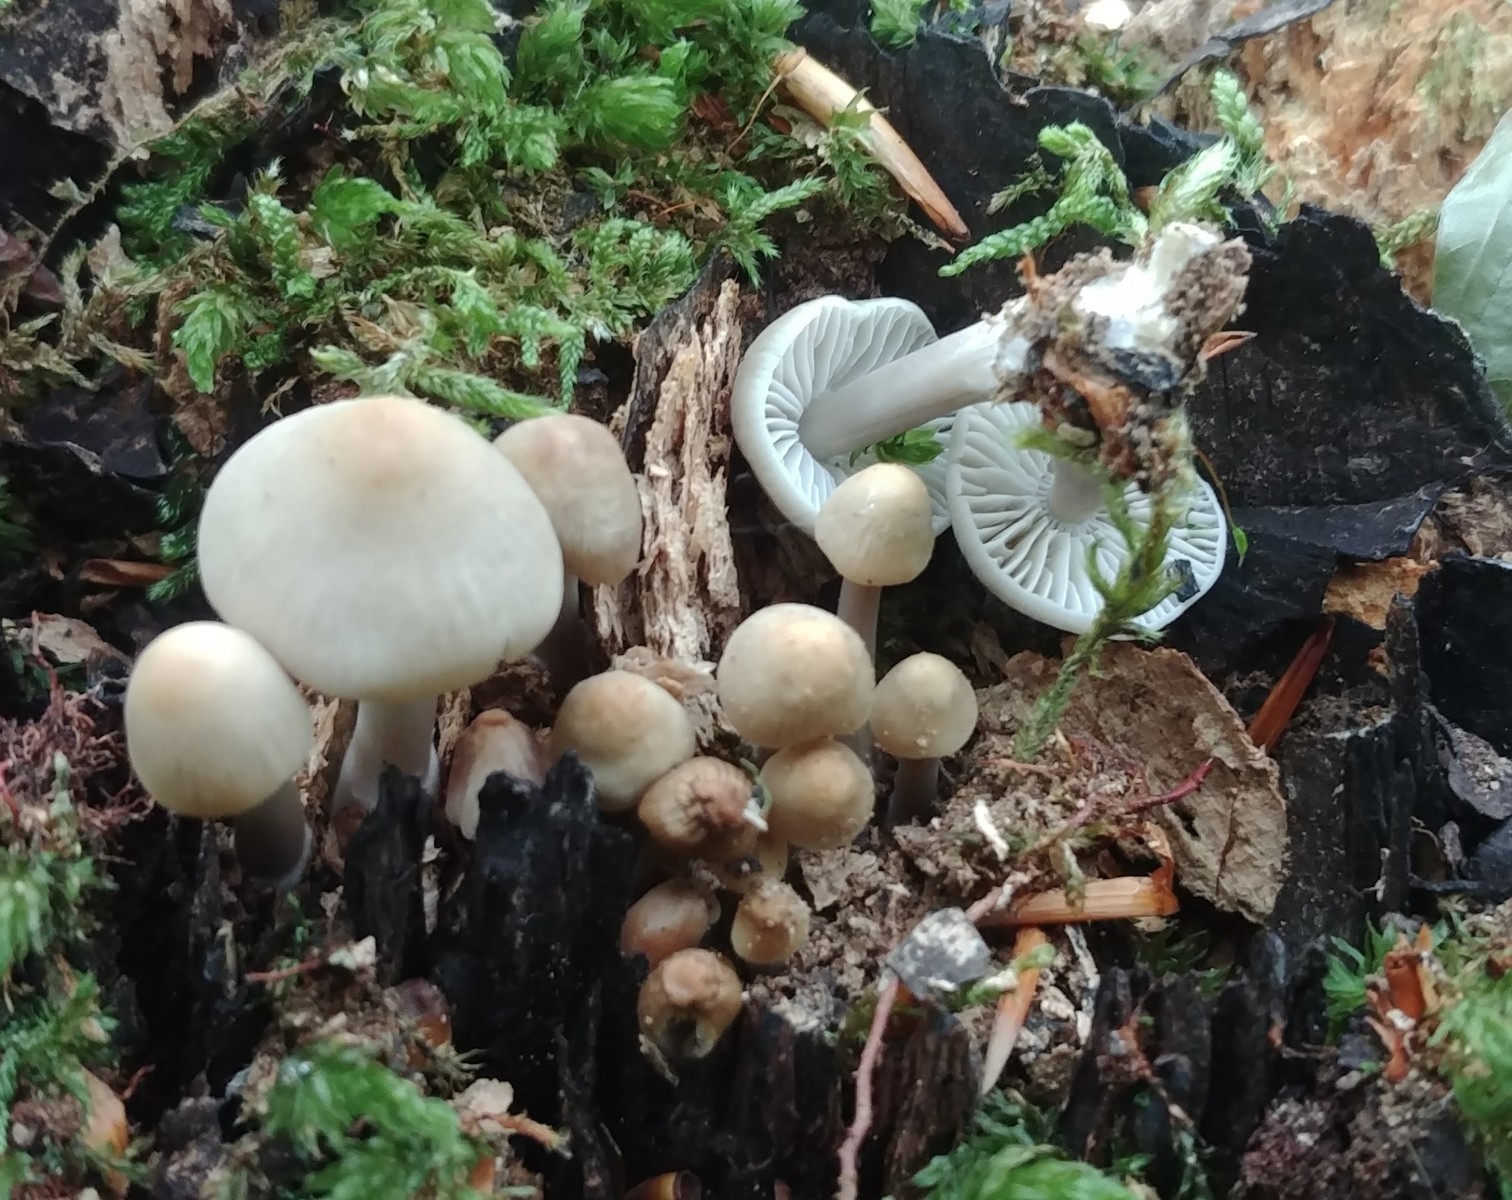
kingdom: Fungi
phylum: Basidiomycota
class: Agaricomycetes
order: Agaricales
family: Mycenaceae
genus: Mycena
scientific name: Mycena galericulata
